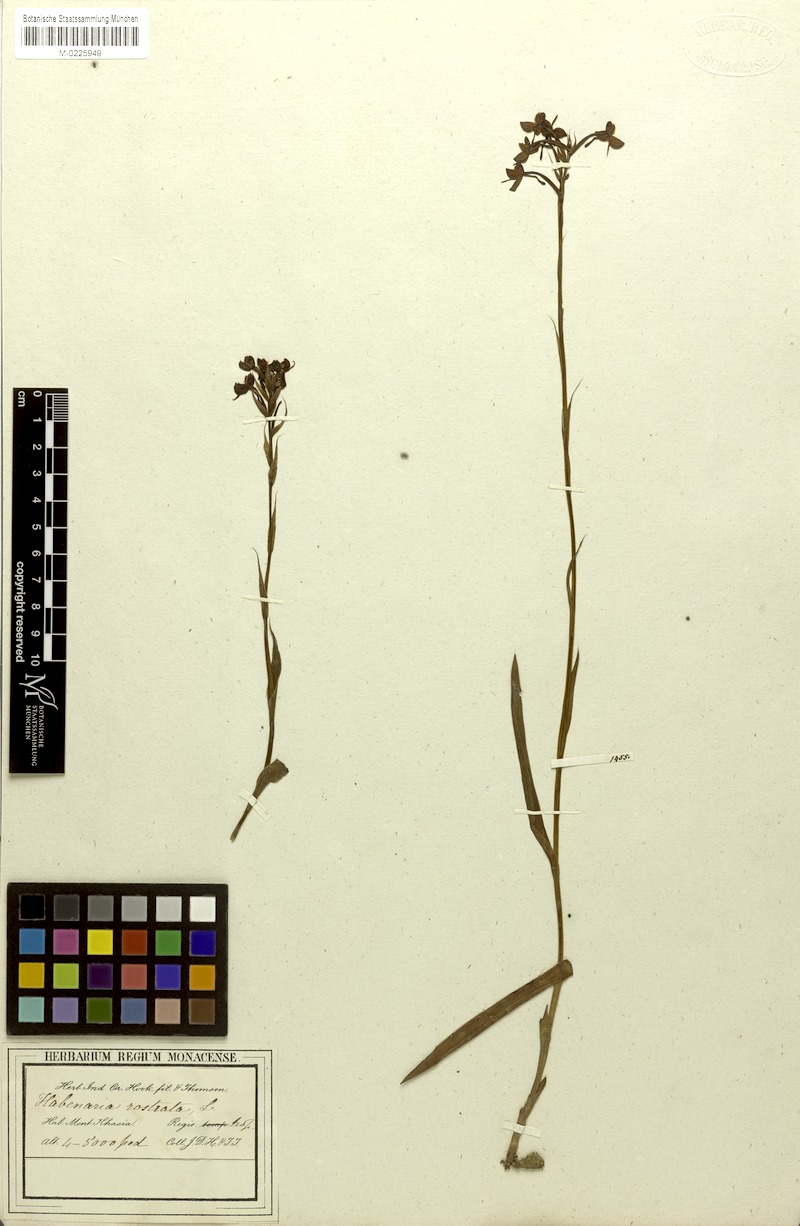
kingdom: Plantae
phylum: Tracheophyta
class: Liliopsida
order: Asparagales
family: Orchidaceae
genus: Habenaria
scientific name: Habenaria rostrata
